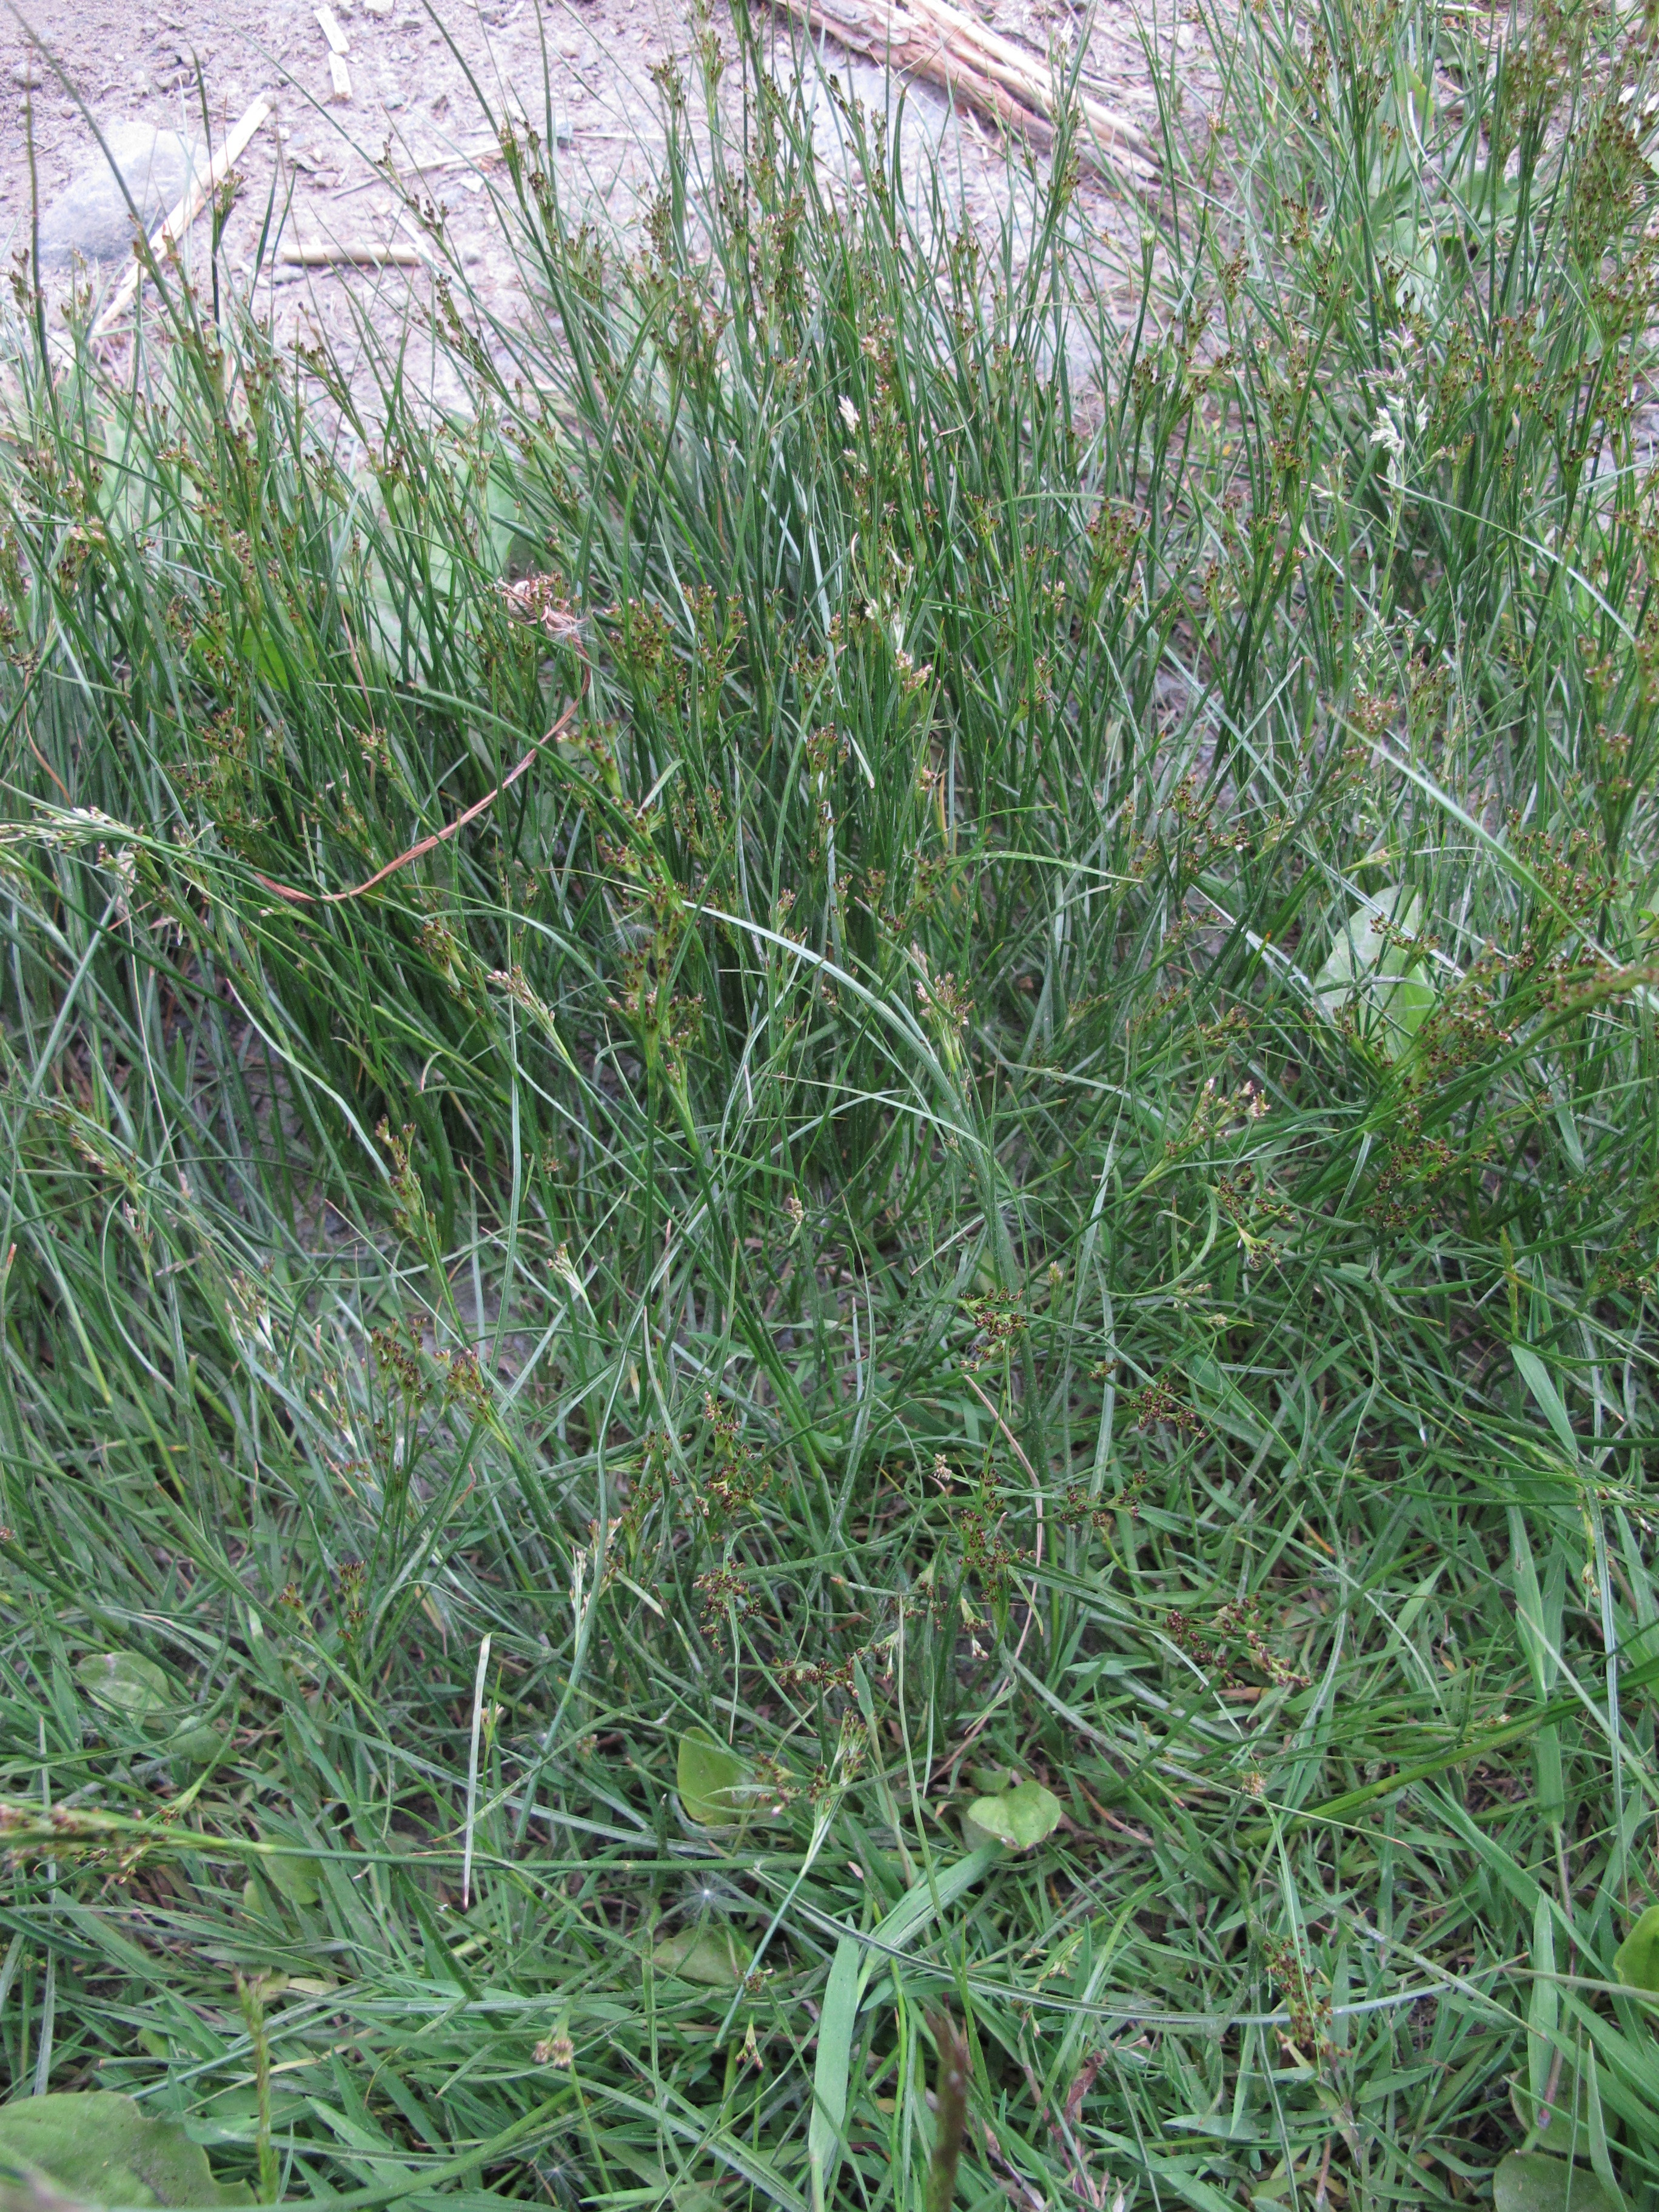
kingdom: Plantae
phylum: Tracheophyta
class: Liliopsida
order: Poales
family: Juncaceae
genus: Juncus
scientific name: Juncus compressus
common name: Round-fruited rush
